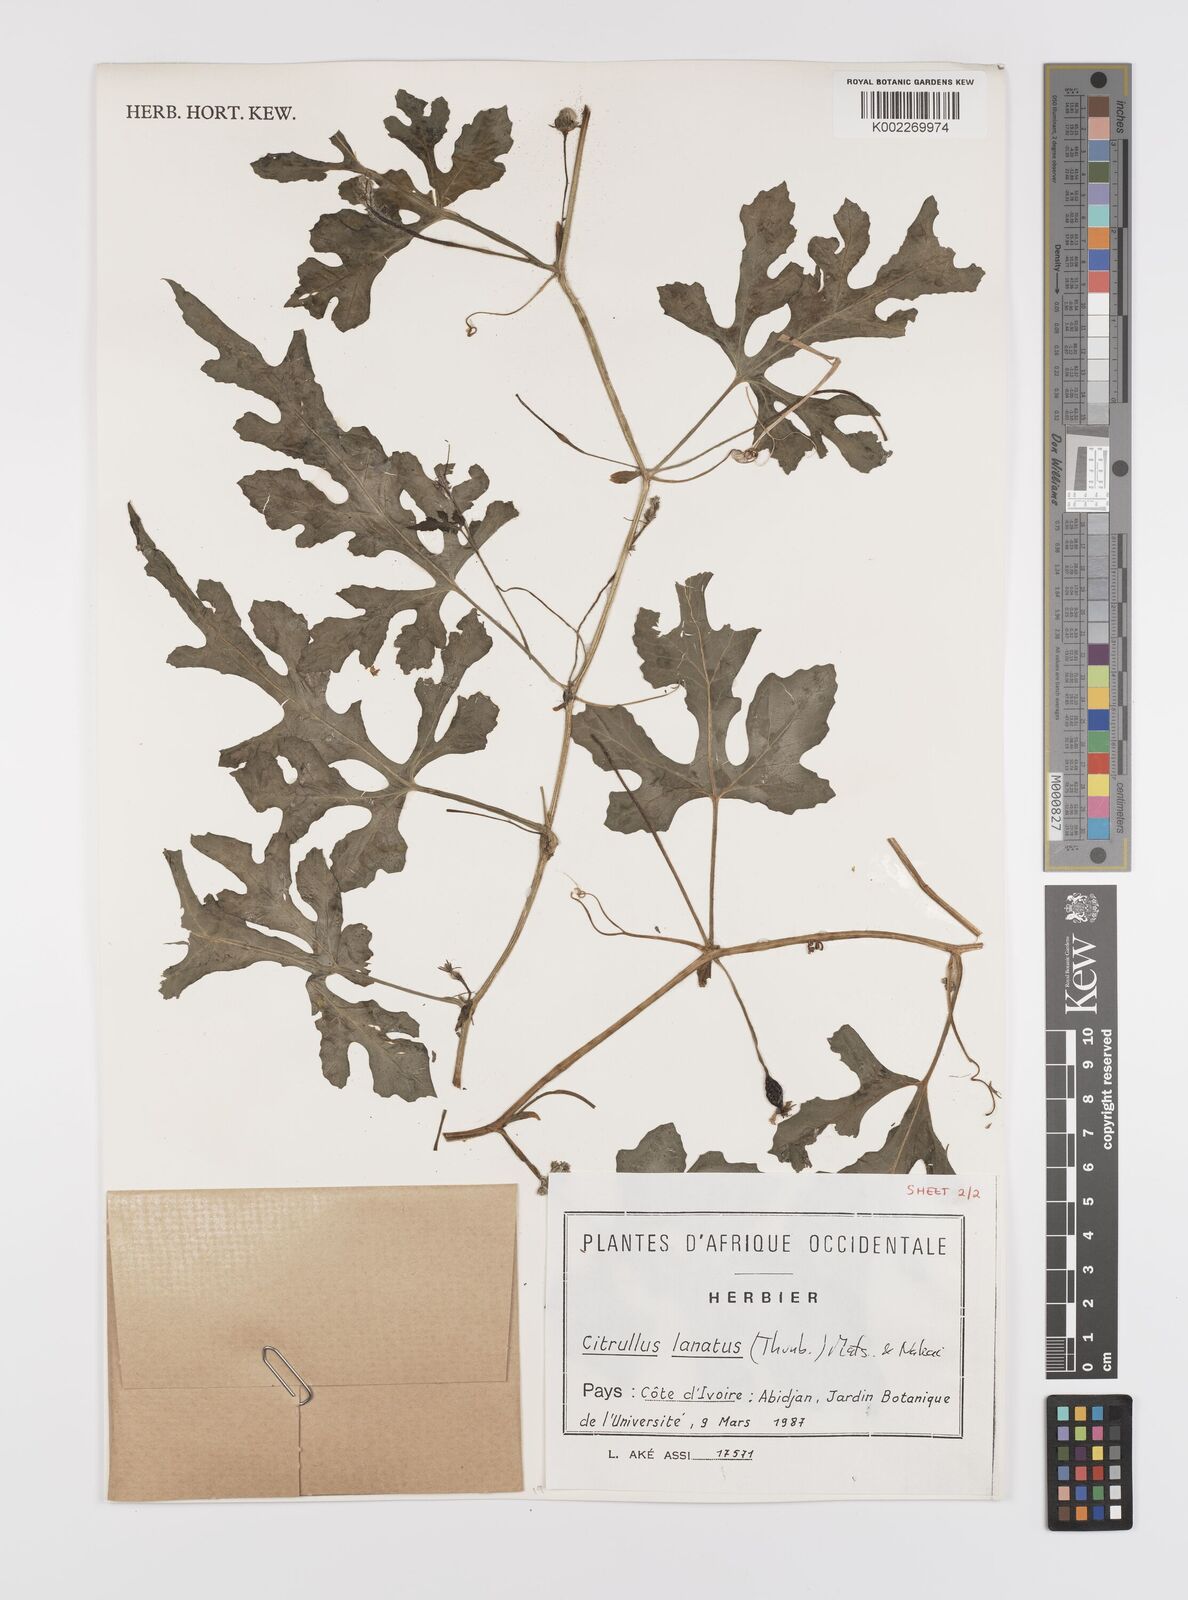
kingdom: Plantae
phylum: Tracheophyta
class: Magnoliopsida
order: Cucurbitales
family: Cucurbitaceae
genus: Citrullus
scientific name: Citrullus lanatus
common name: Watermelon
